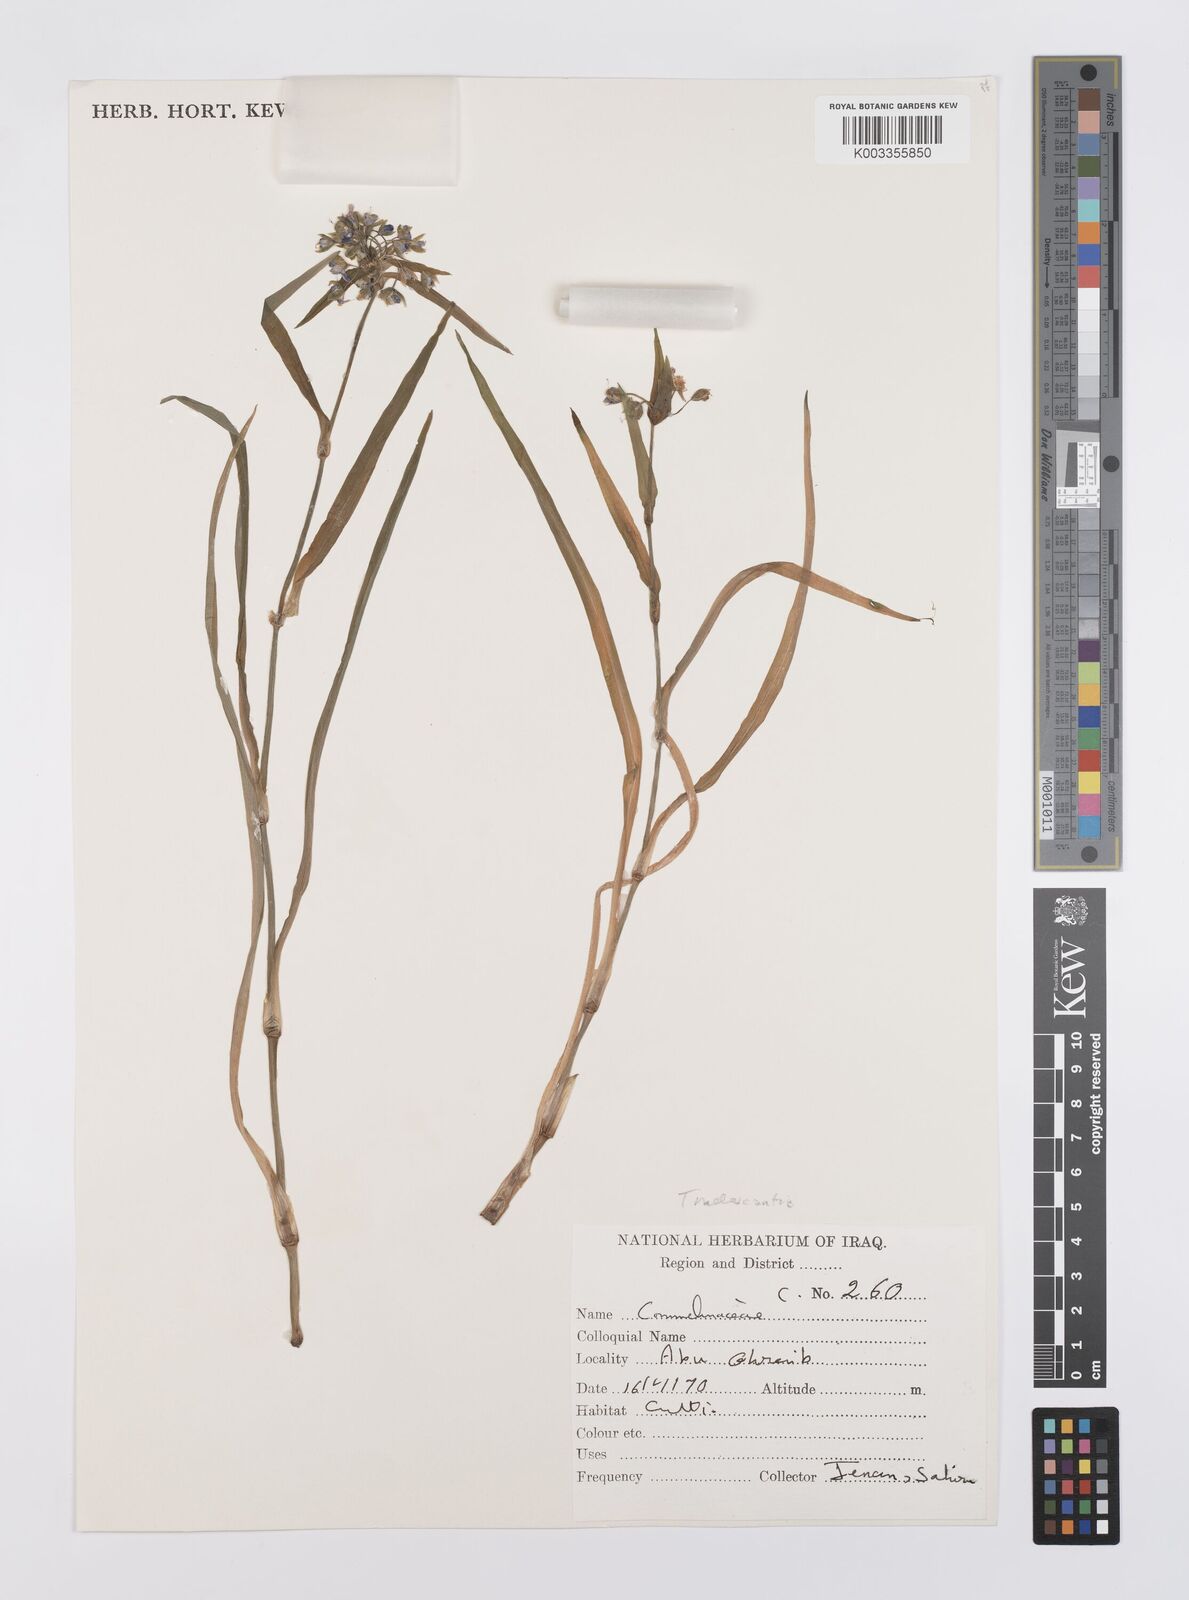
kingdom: Plantae
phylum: Tracheophyta
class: Liliopsida
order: Commelinales
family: Commelinaceae
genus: Tradescantia
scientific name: Tradescantia
